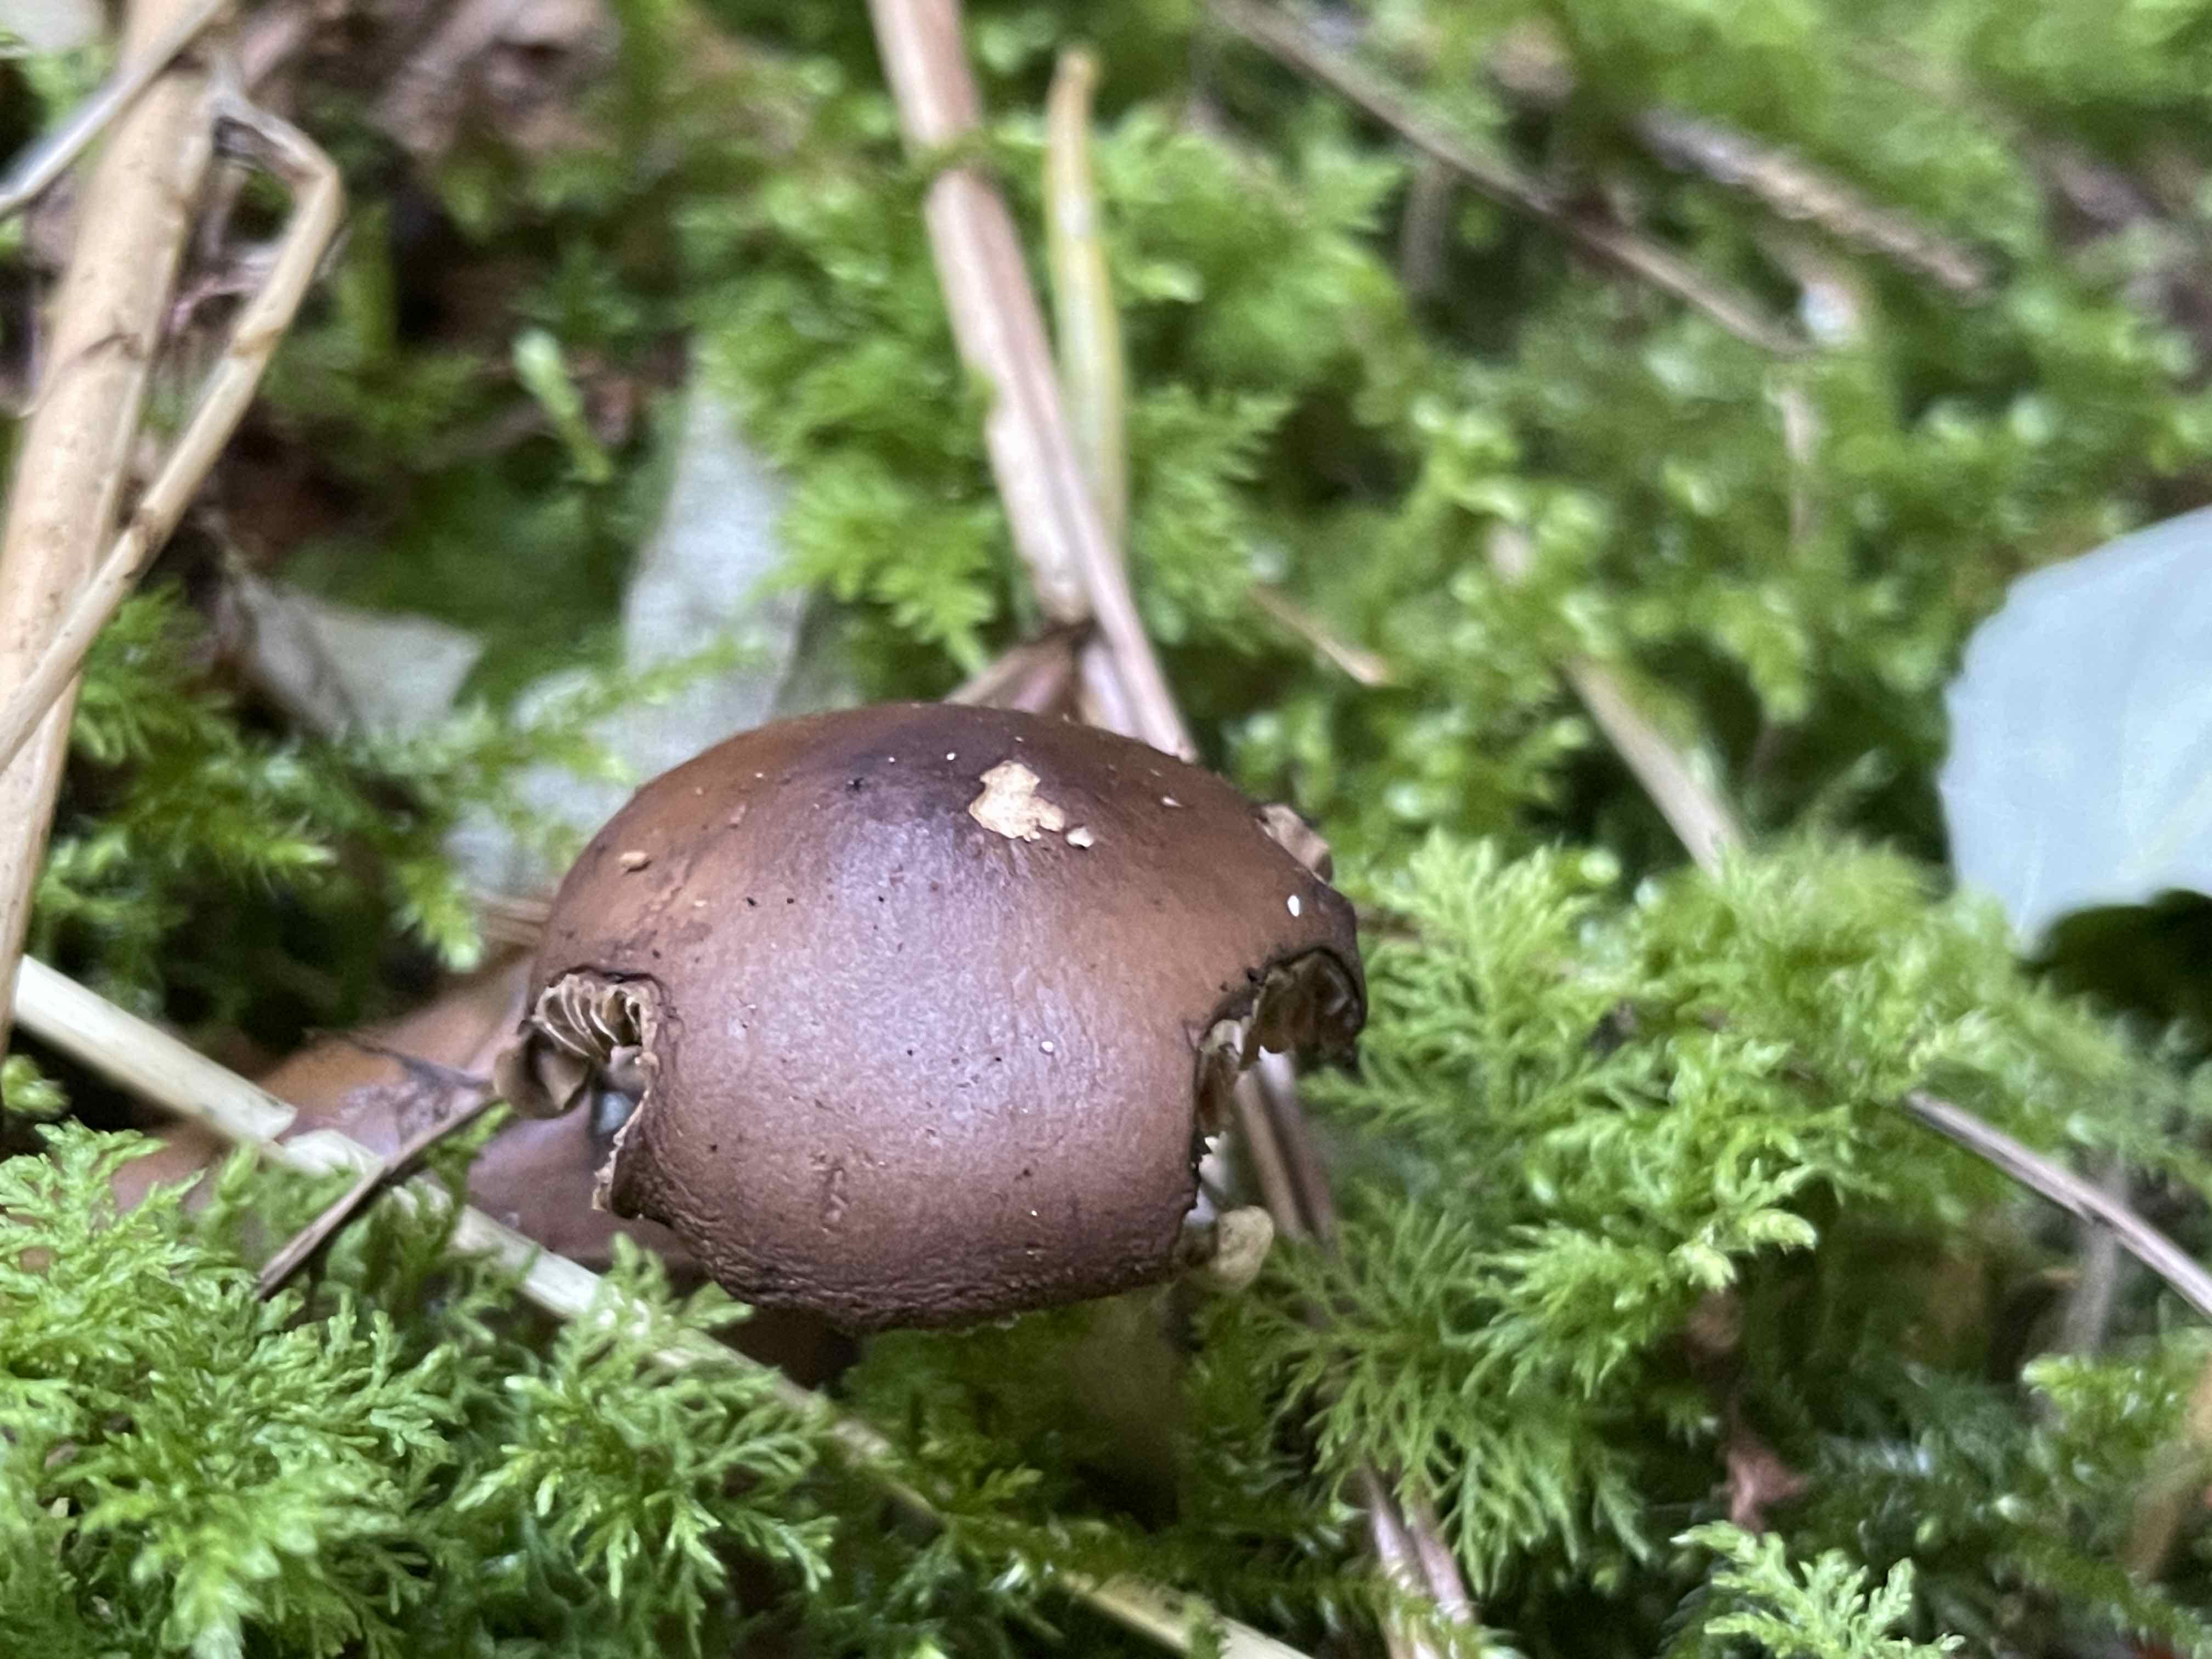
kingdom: Fungi
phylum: Basidiomycota
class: Agaricomycetes
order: Agaricales
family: Tubariaceae
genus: Cyclocybe
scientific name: Cyclocybe erebia
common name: mørk agerhat
